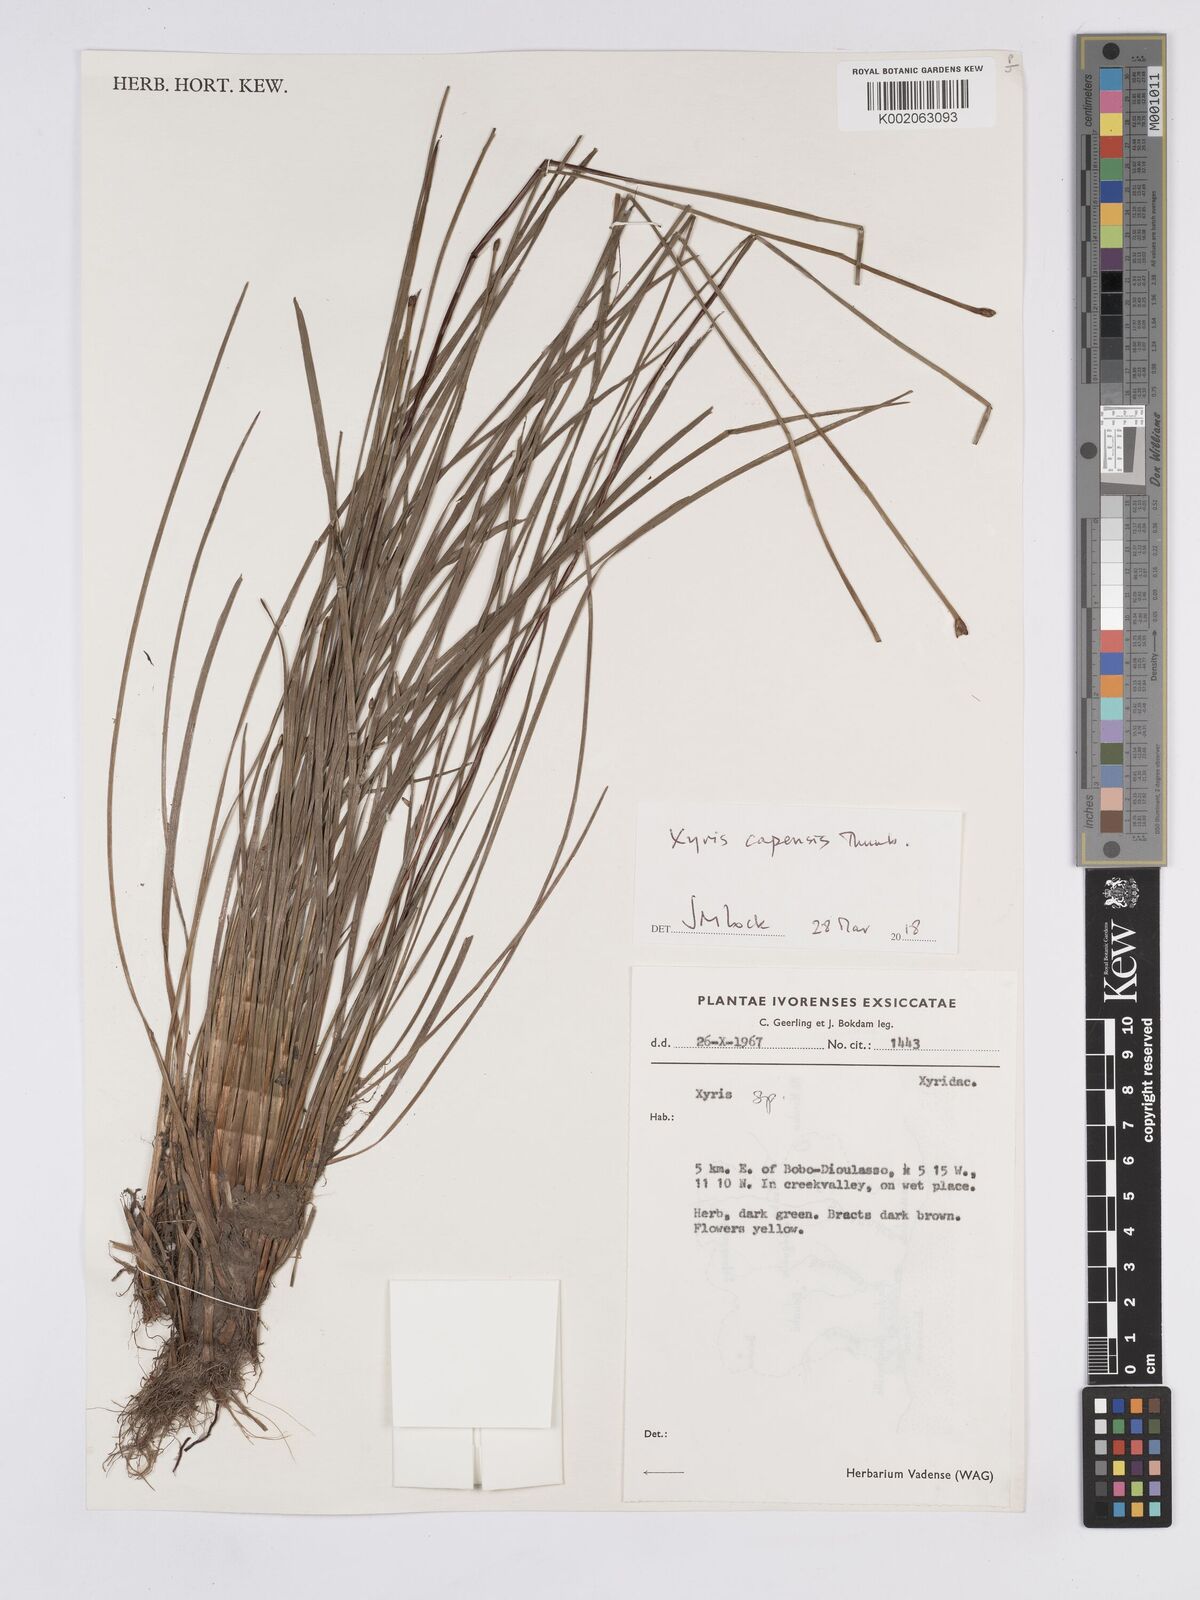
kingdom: Plantae
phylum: Tracheophyta
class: Liliopsida
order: Poales
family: Xyridaceae
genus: Xyris
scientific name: Xyris capensis
